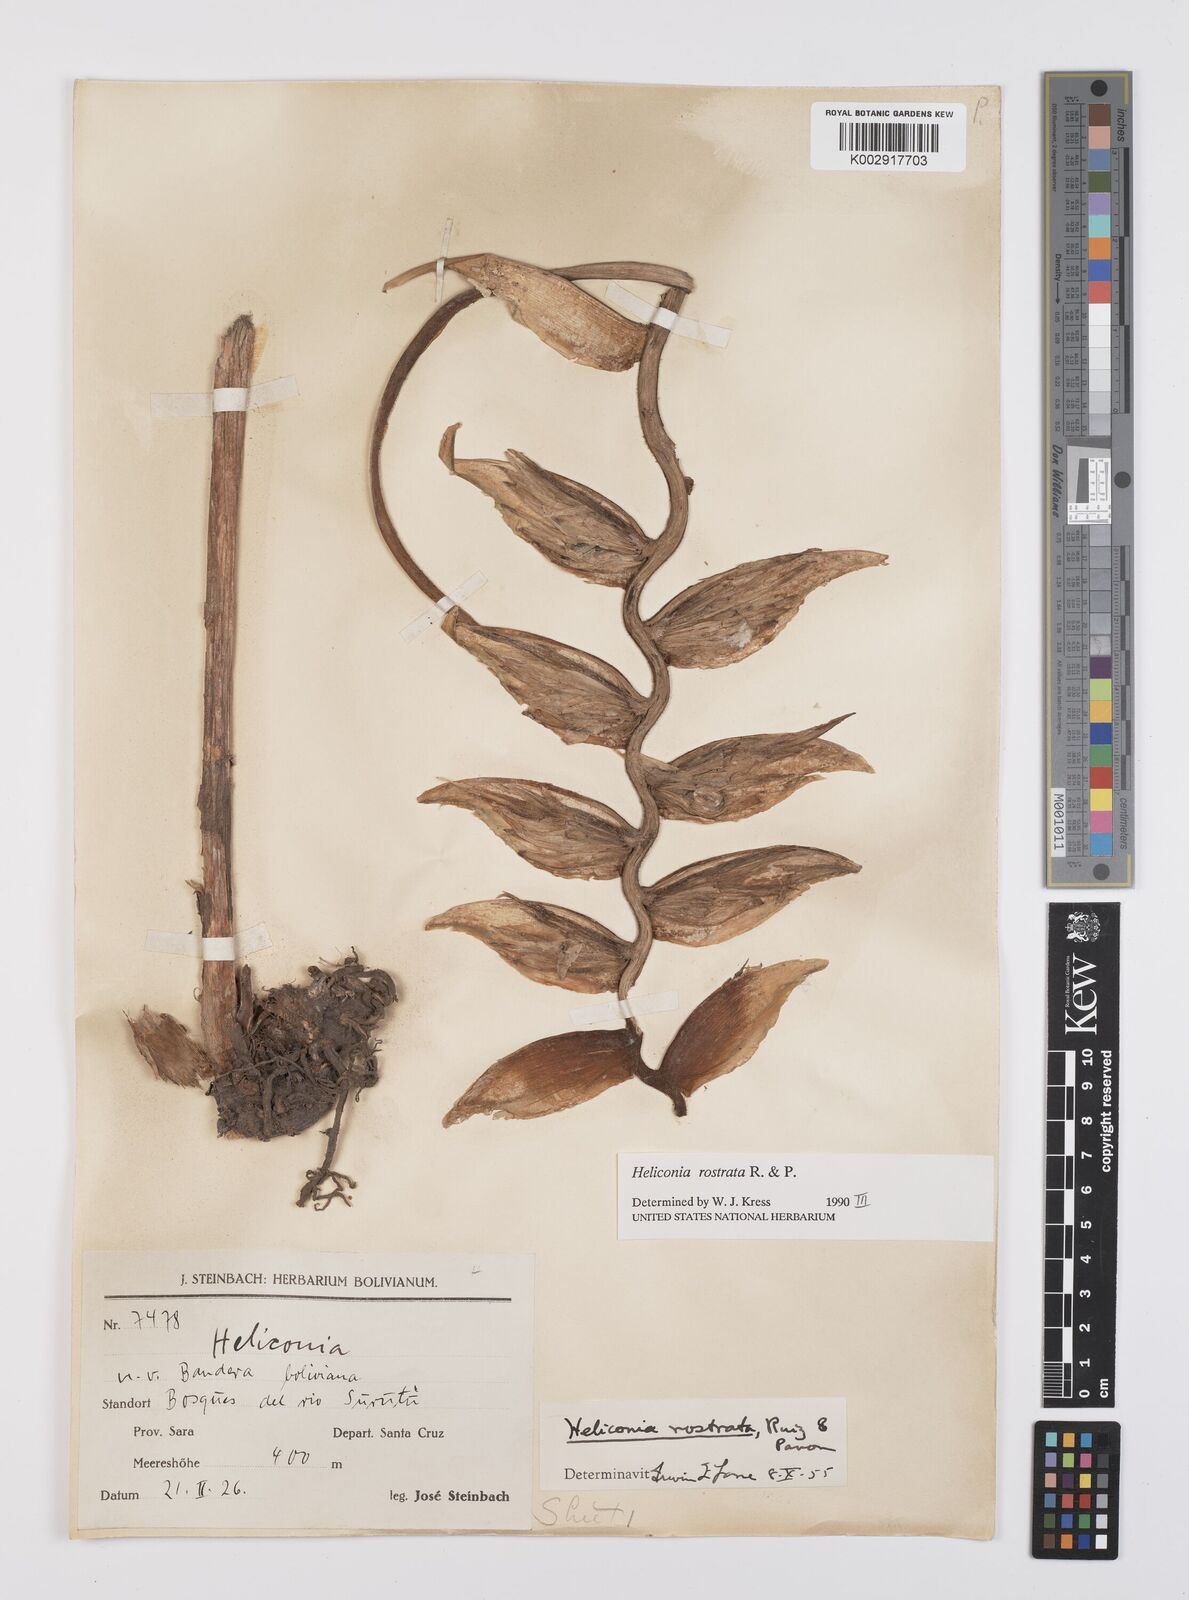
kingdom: Plantae
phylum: Tracheophyta
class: Liliopsida
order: Zingiberales
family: Heliconiaceae
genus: Heliconia
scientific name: Heliconia rostrata
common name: False bird of paradise
